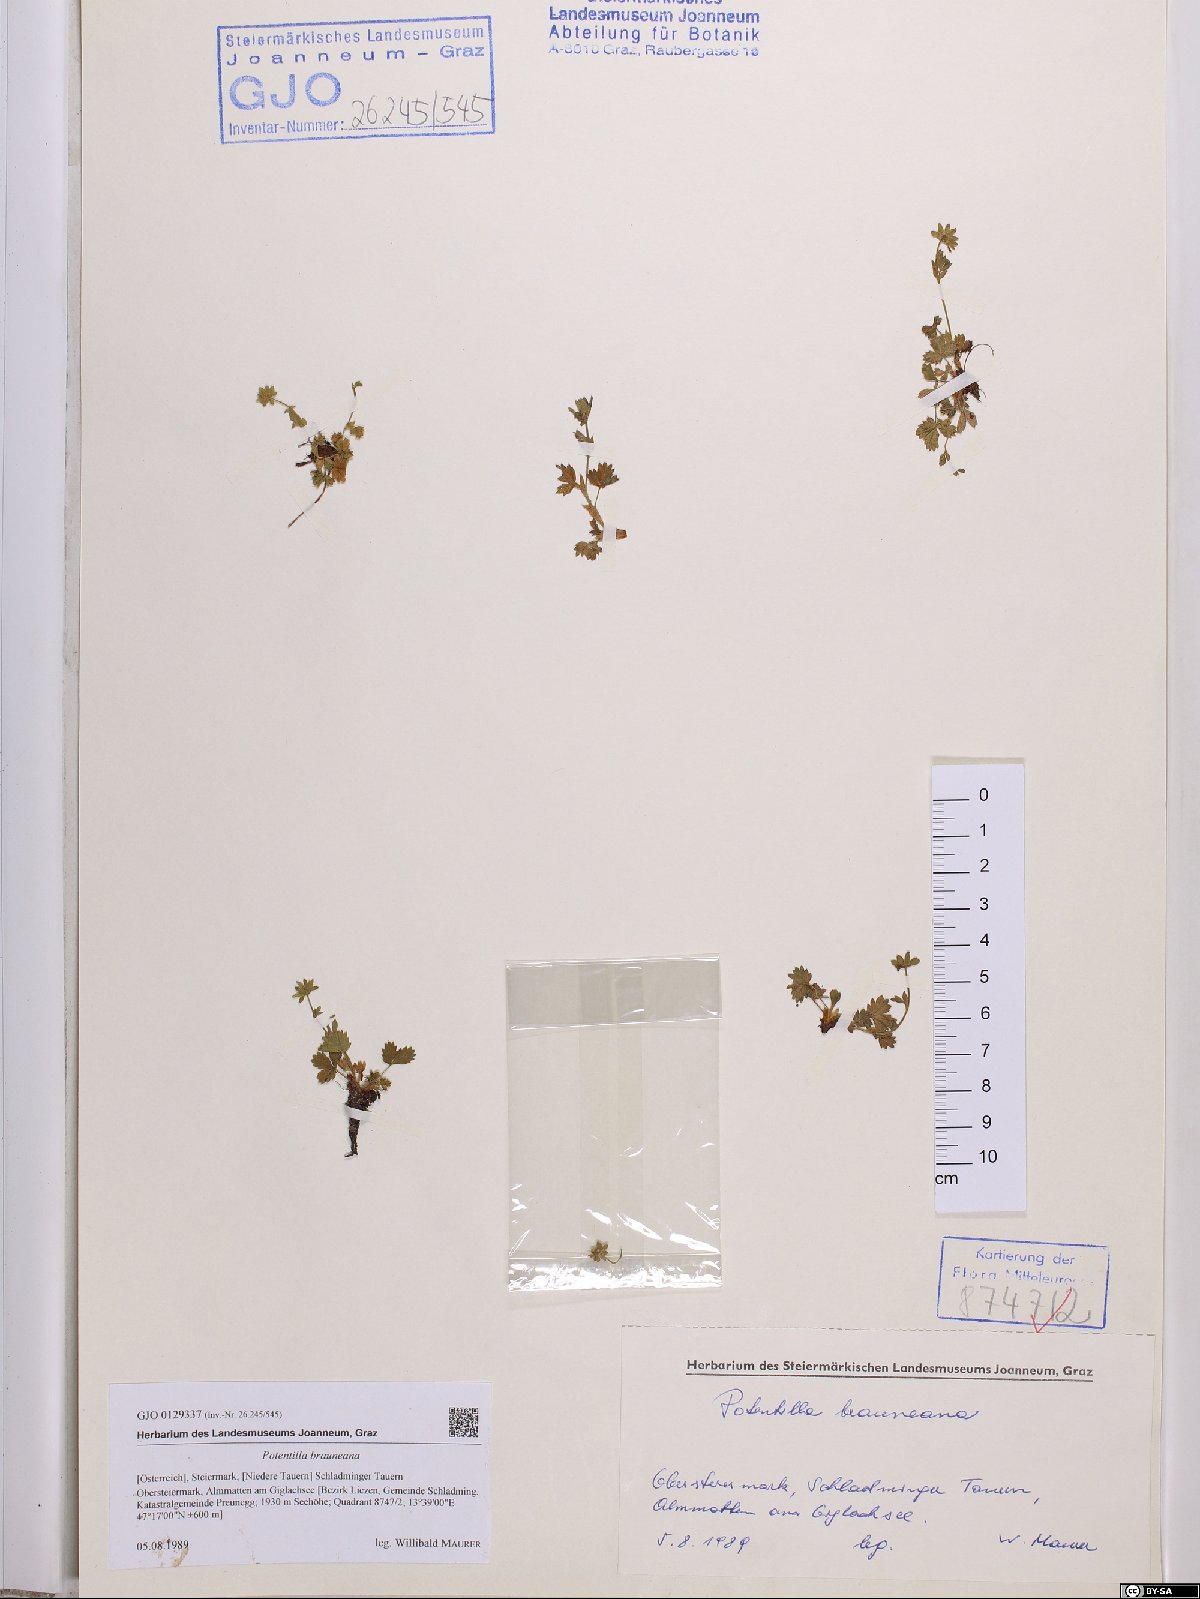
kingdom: Plantae
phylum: Tracheophyta
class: Magnoliopsida
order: Rosales
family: Rosaceae
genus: Potentilla
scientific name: Potentilla brauneana
